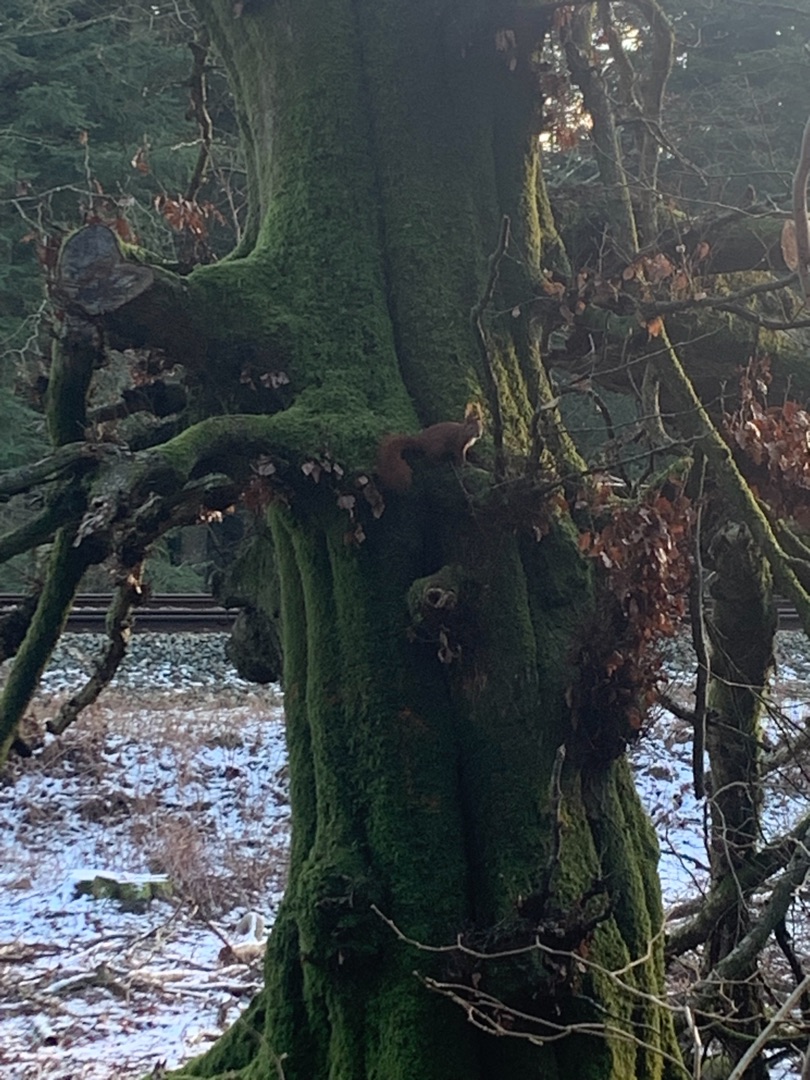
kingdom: Animalia
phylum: Chordata
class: Mammalia
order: Rodentia
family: Sciuridae
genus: Sciurus
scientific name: Sciurus vulgaris
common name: Egern
